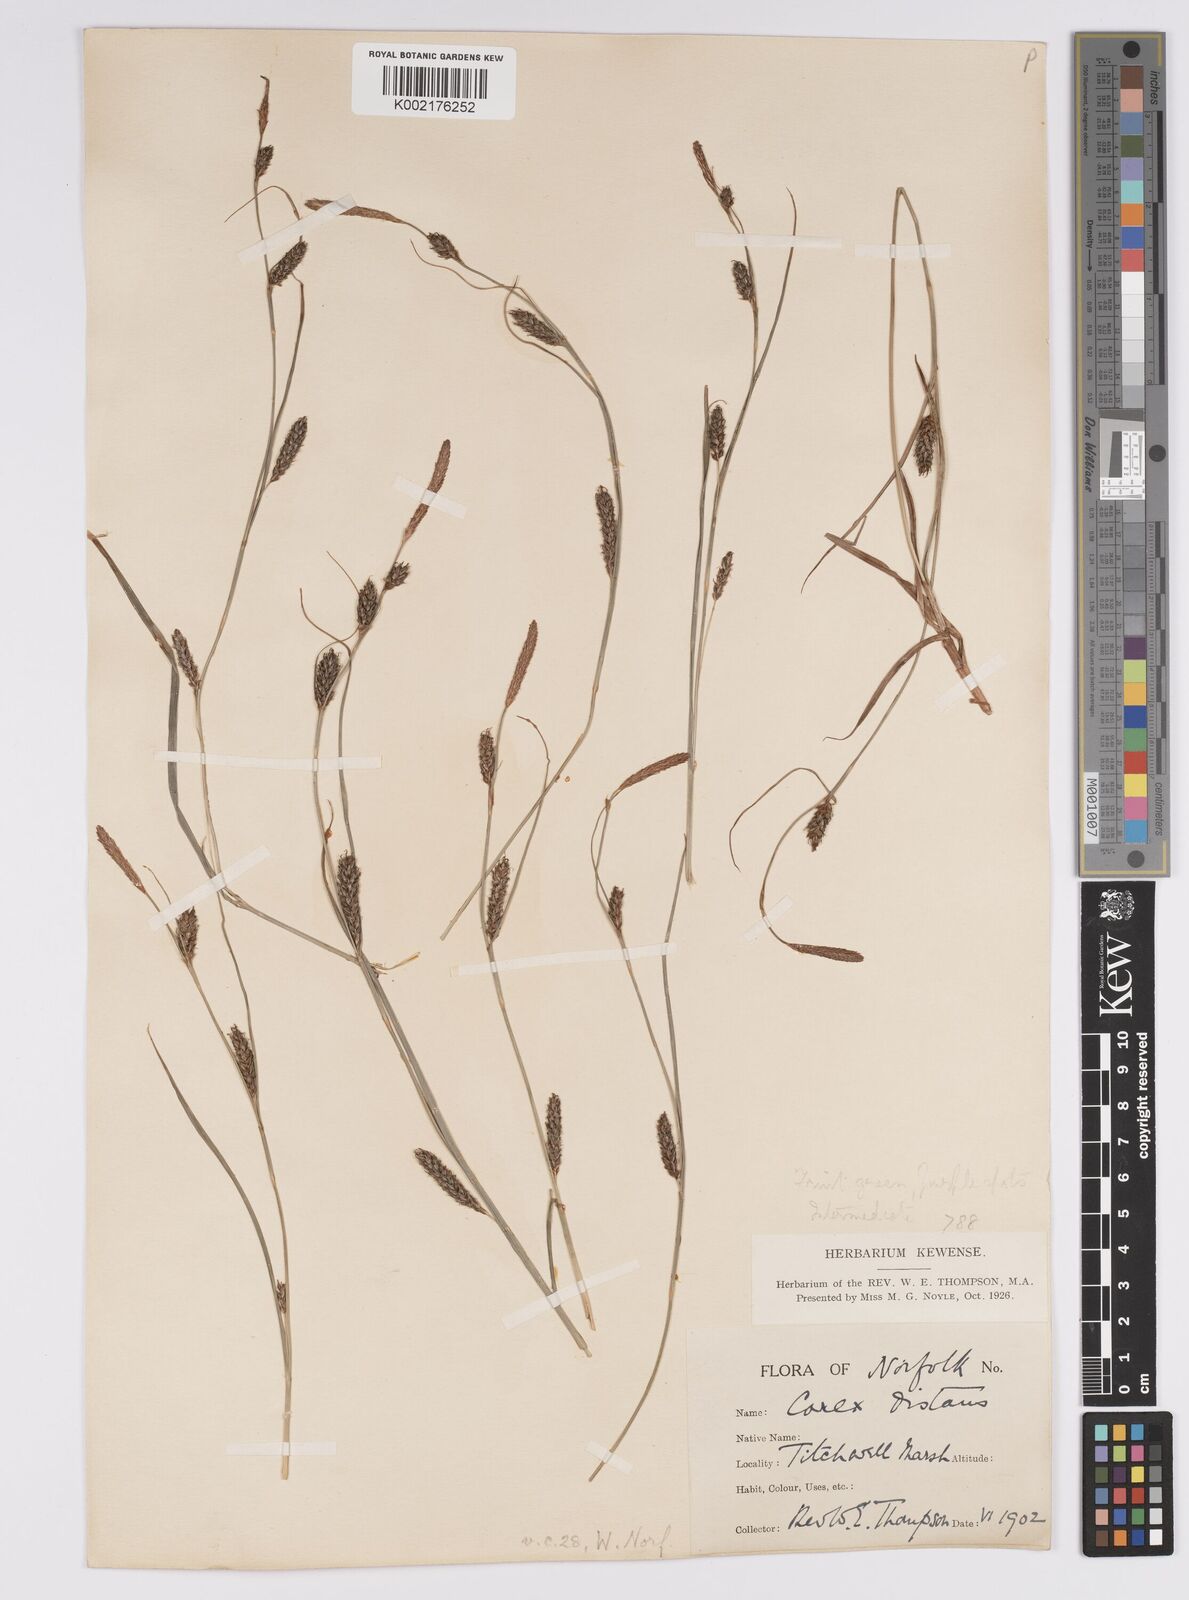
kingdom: Plantae
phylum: Tracheophyta
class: Liliopsida
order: Poales
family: Cyperaceae
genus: Carex
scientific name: Carex distans
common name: Distant sedge
